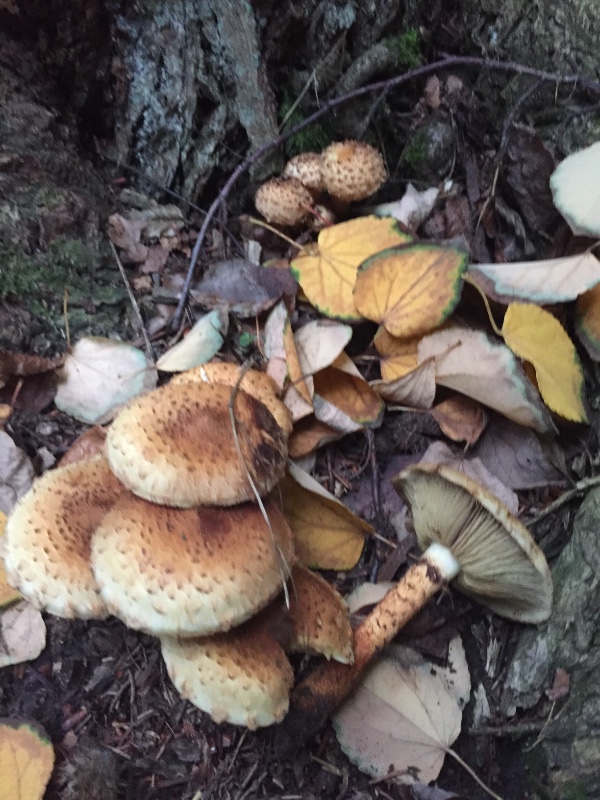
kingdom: Fungi
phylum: Basidiomycota
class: Agaricomycetes
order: Agaricales
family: Strophariaceae
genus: Pholiota
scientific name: Pholiota squarrosa
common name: krumskællet skælhat
